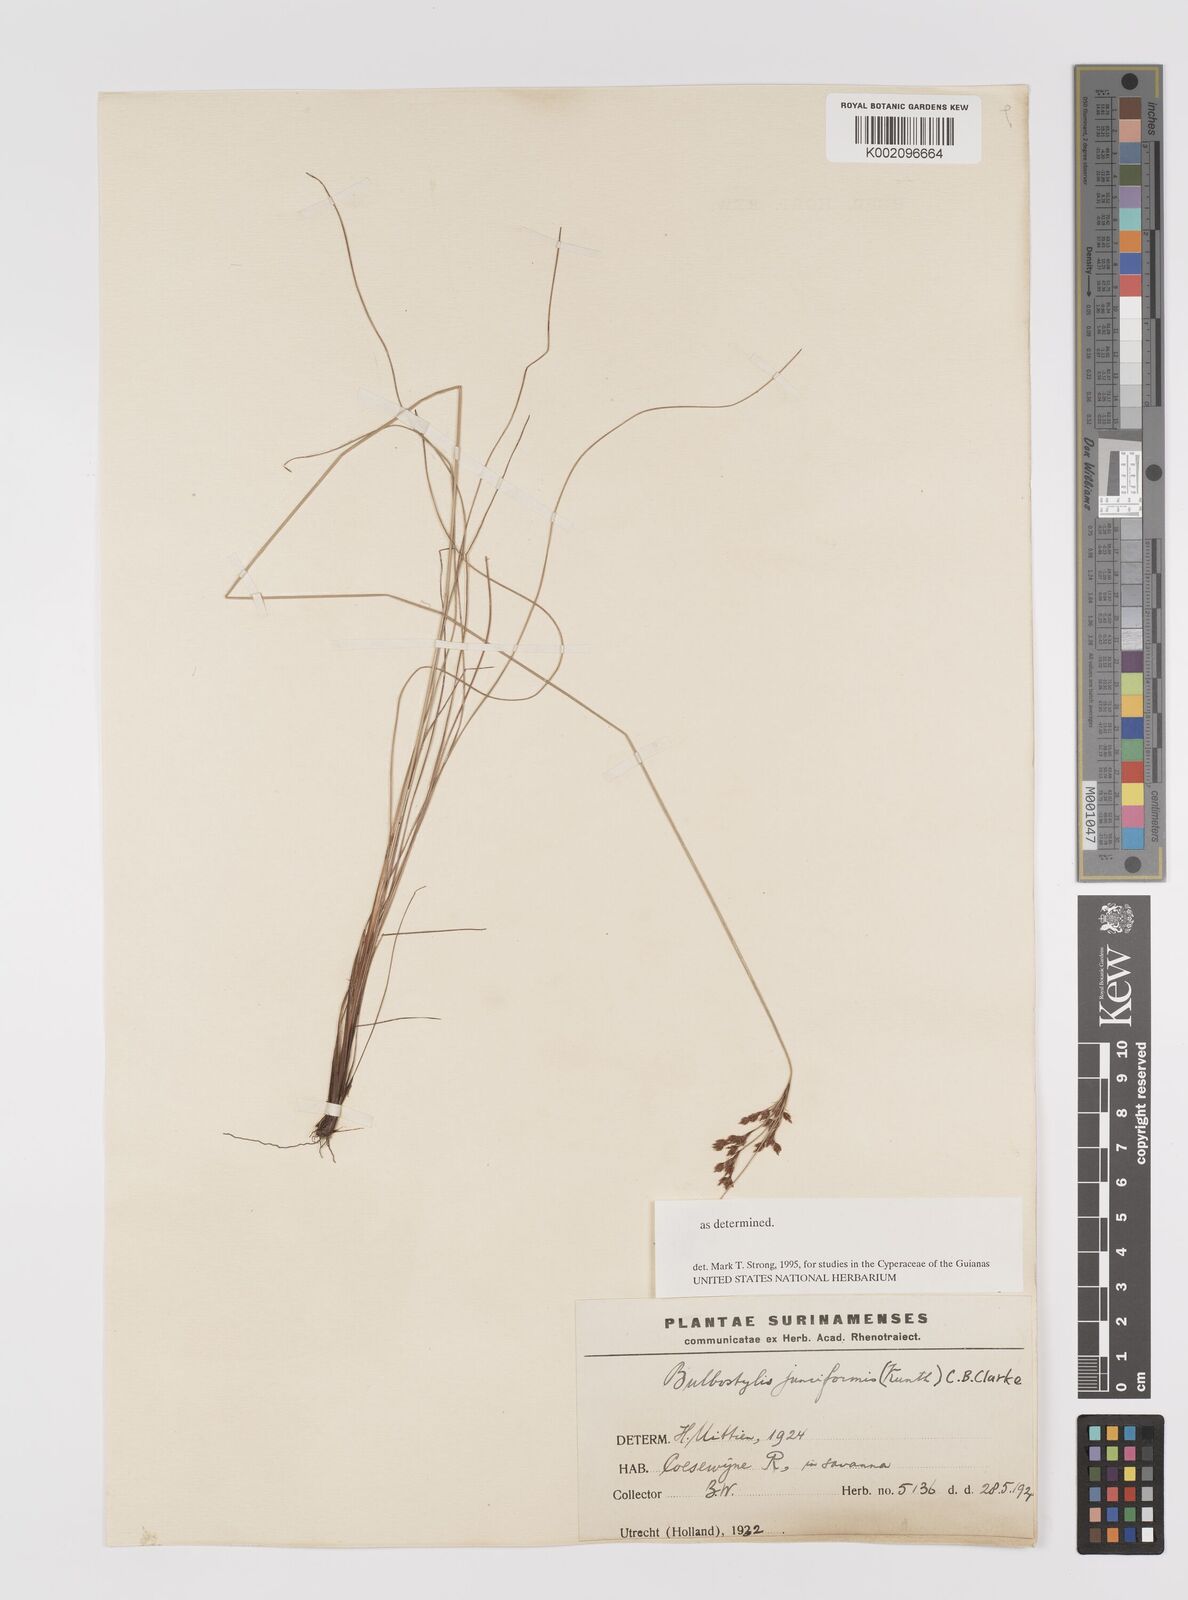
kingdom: Plantae
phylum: Tracheophyta
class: Liliopsida
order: Poales
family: Cyperaceae
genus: Bulbostylis
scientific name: Bulbostylis junciformis
